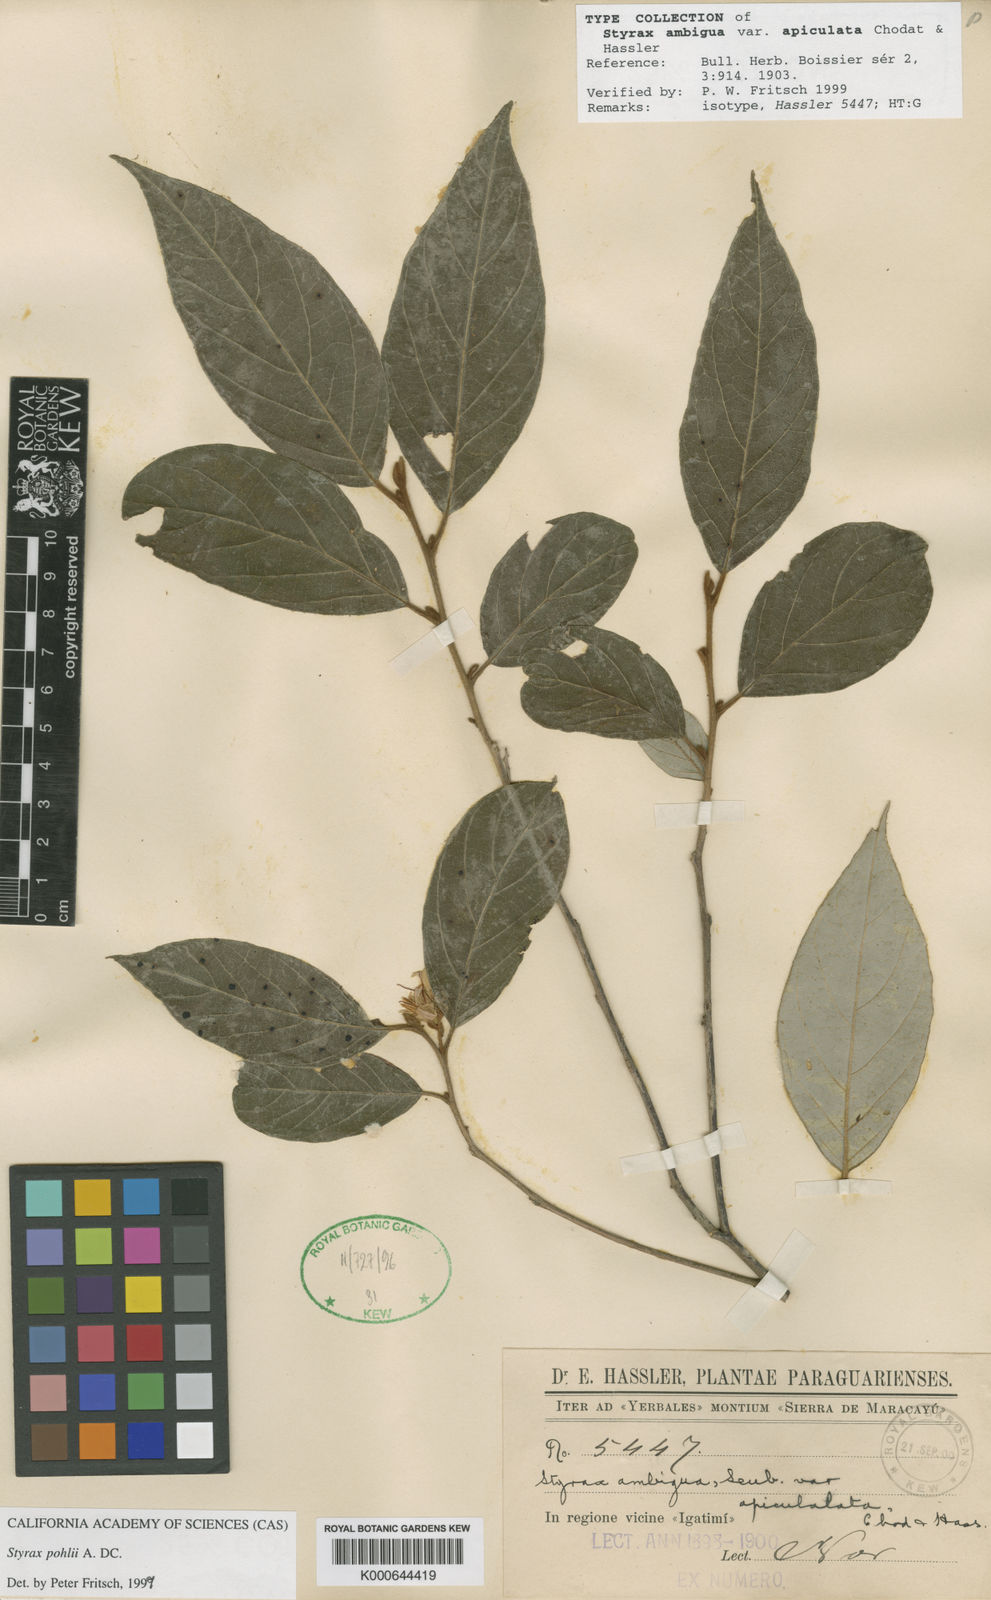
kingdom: Plantae
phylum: Tracheophyta
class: Magnoliopsida
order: Ericales
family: Styracaceae
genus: Styrax
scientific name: Styrax pohlii
